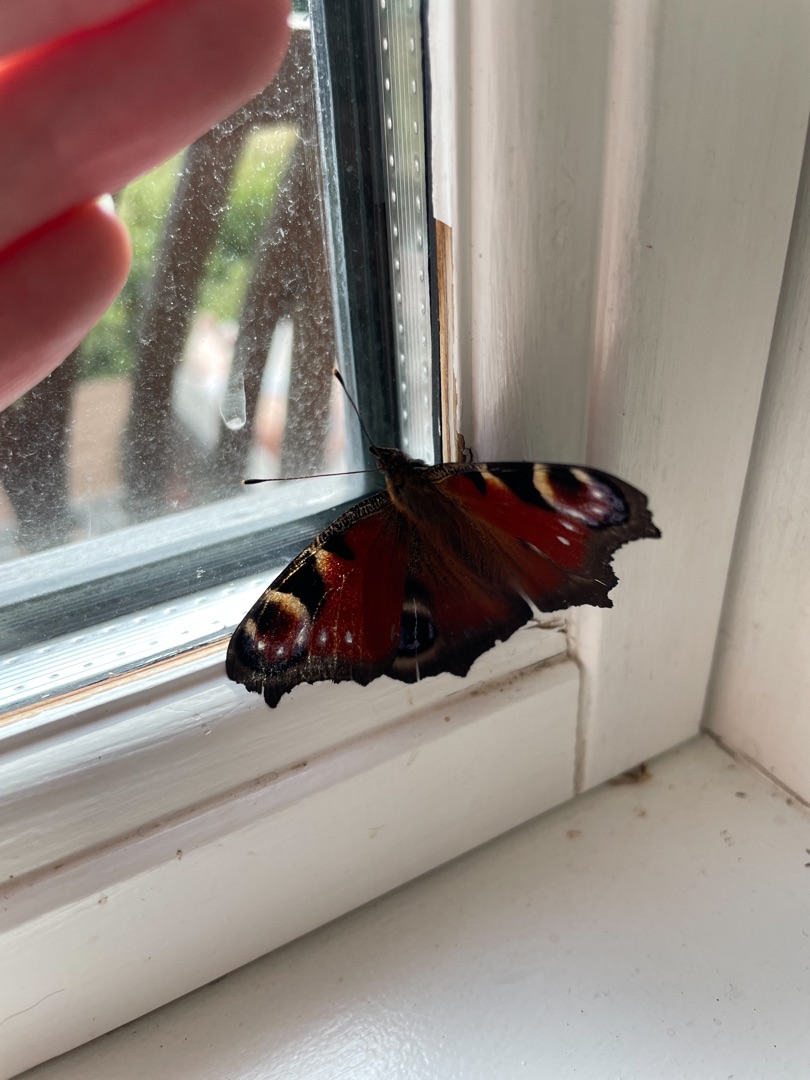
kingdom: Animalia
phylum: Arthropoda
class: Insecta
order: Lepidoptera
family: Nymphalidae
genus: Aglais
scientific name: Aglais io
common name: Dagpåfugleøje
